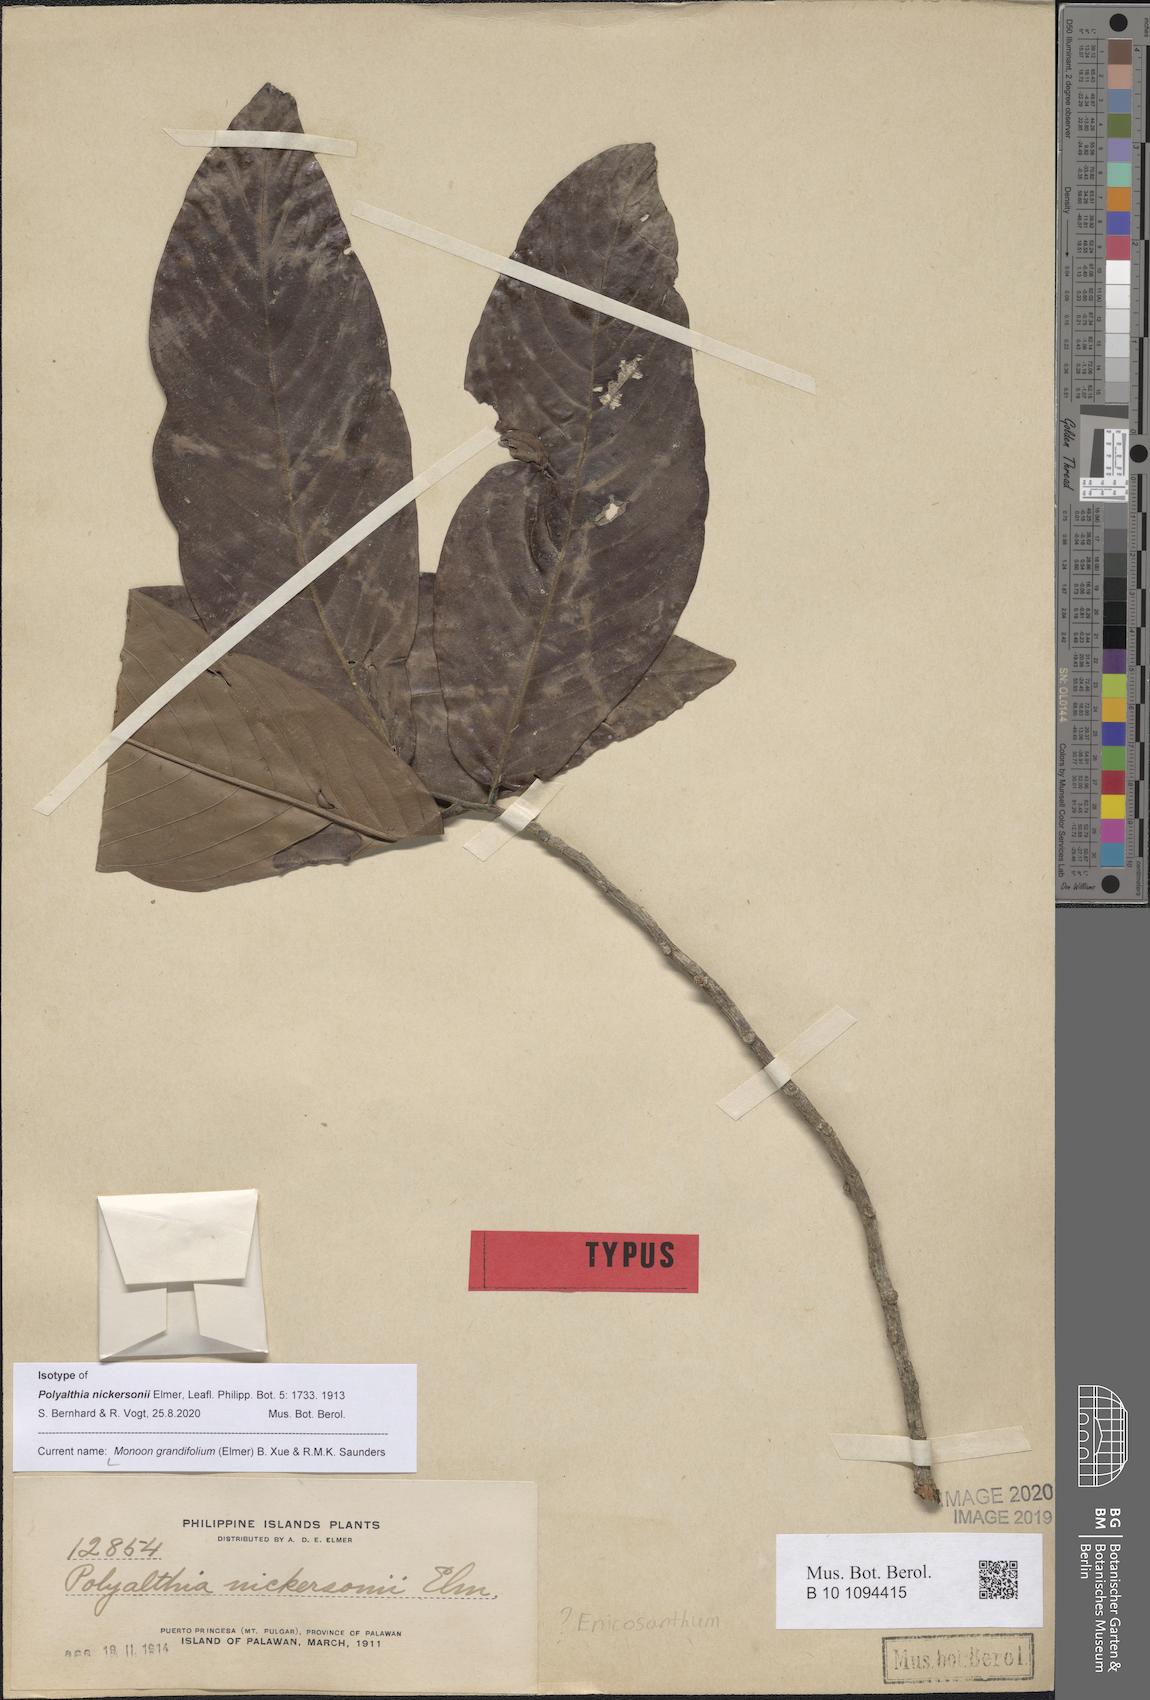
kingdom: Plantae
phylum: Tracheophyta
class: Magnoliopsida
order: Magnoliales
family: Annonaceae
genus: Enicosanthum
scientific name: Enicosanthum grandifolium
